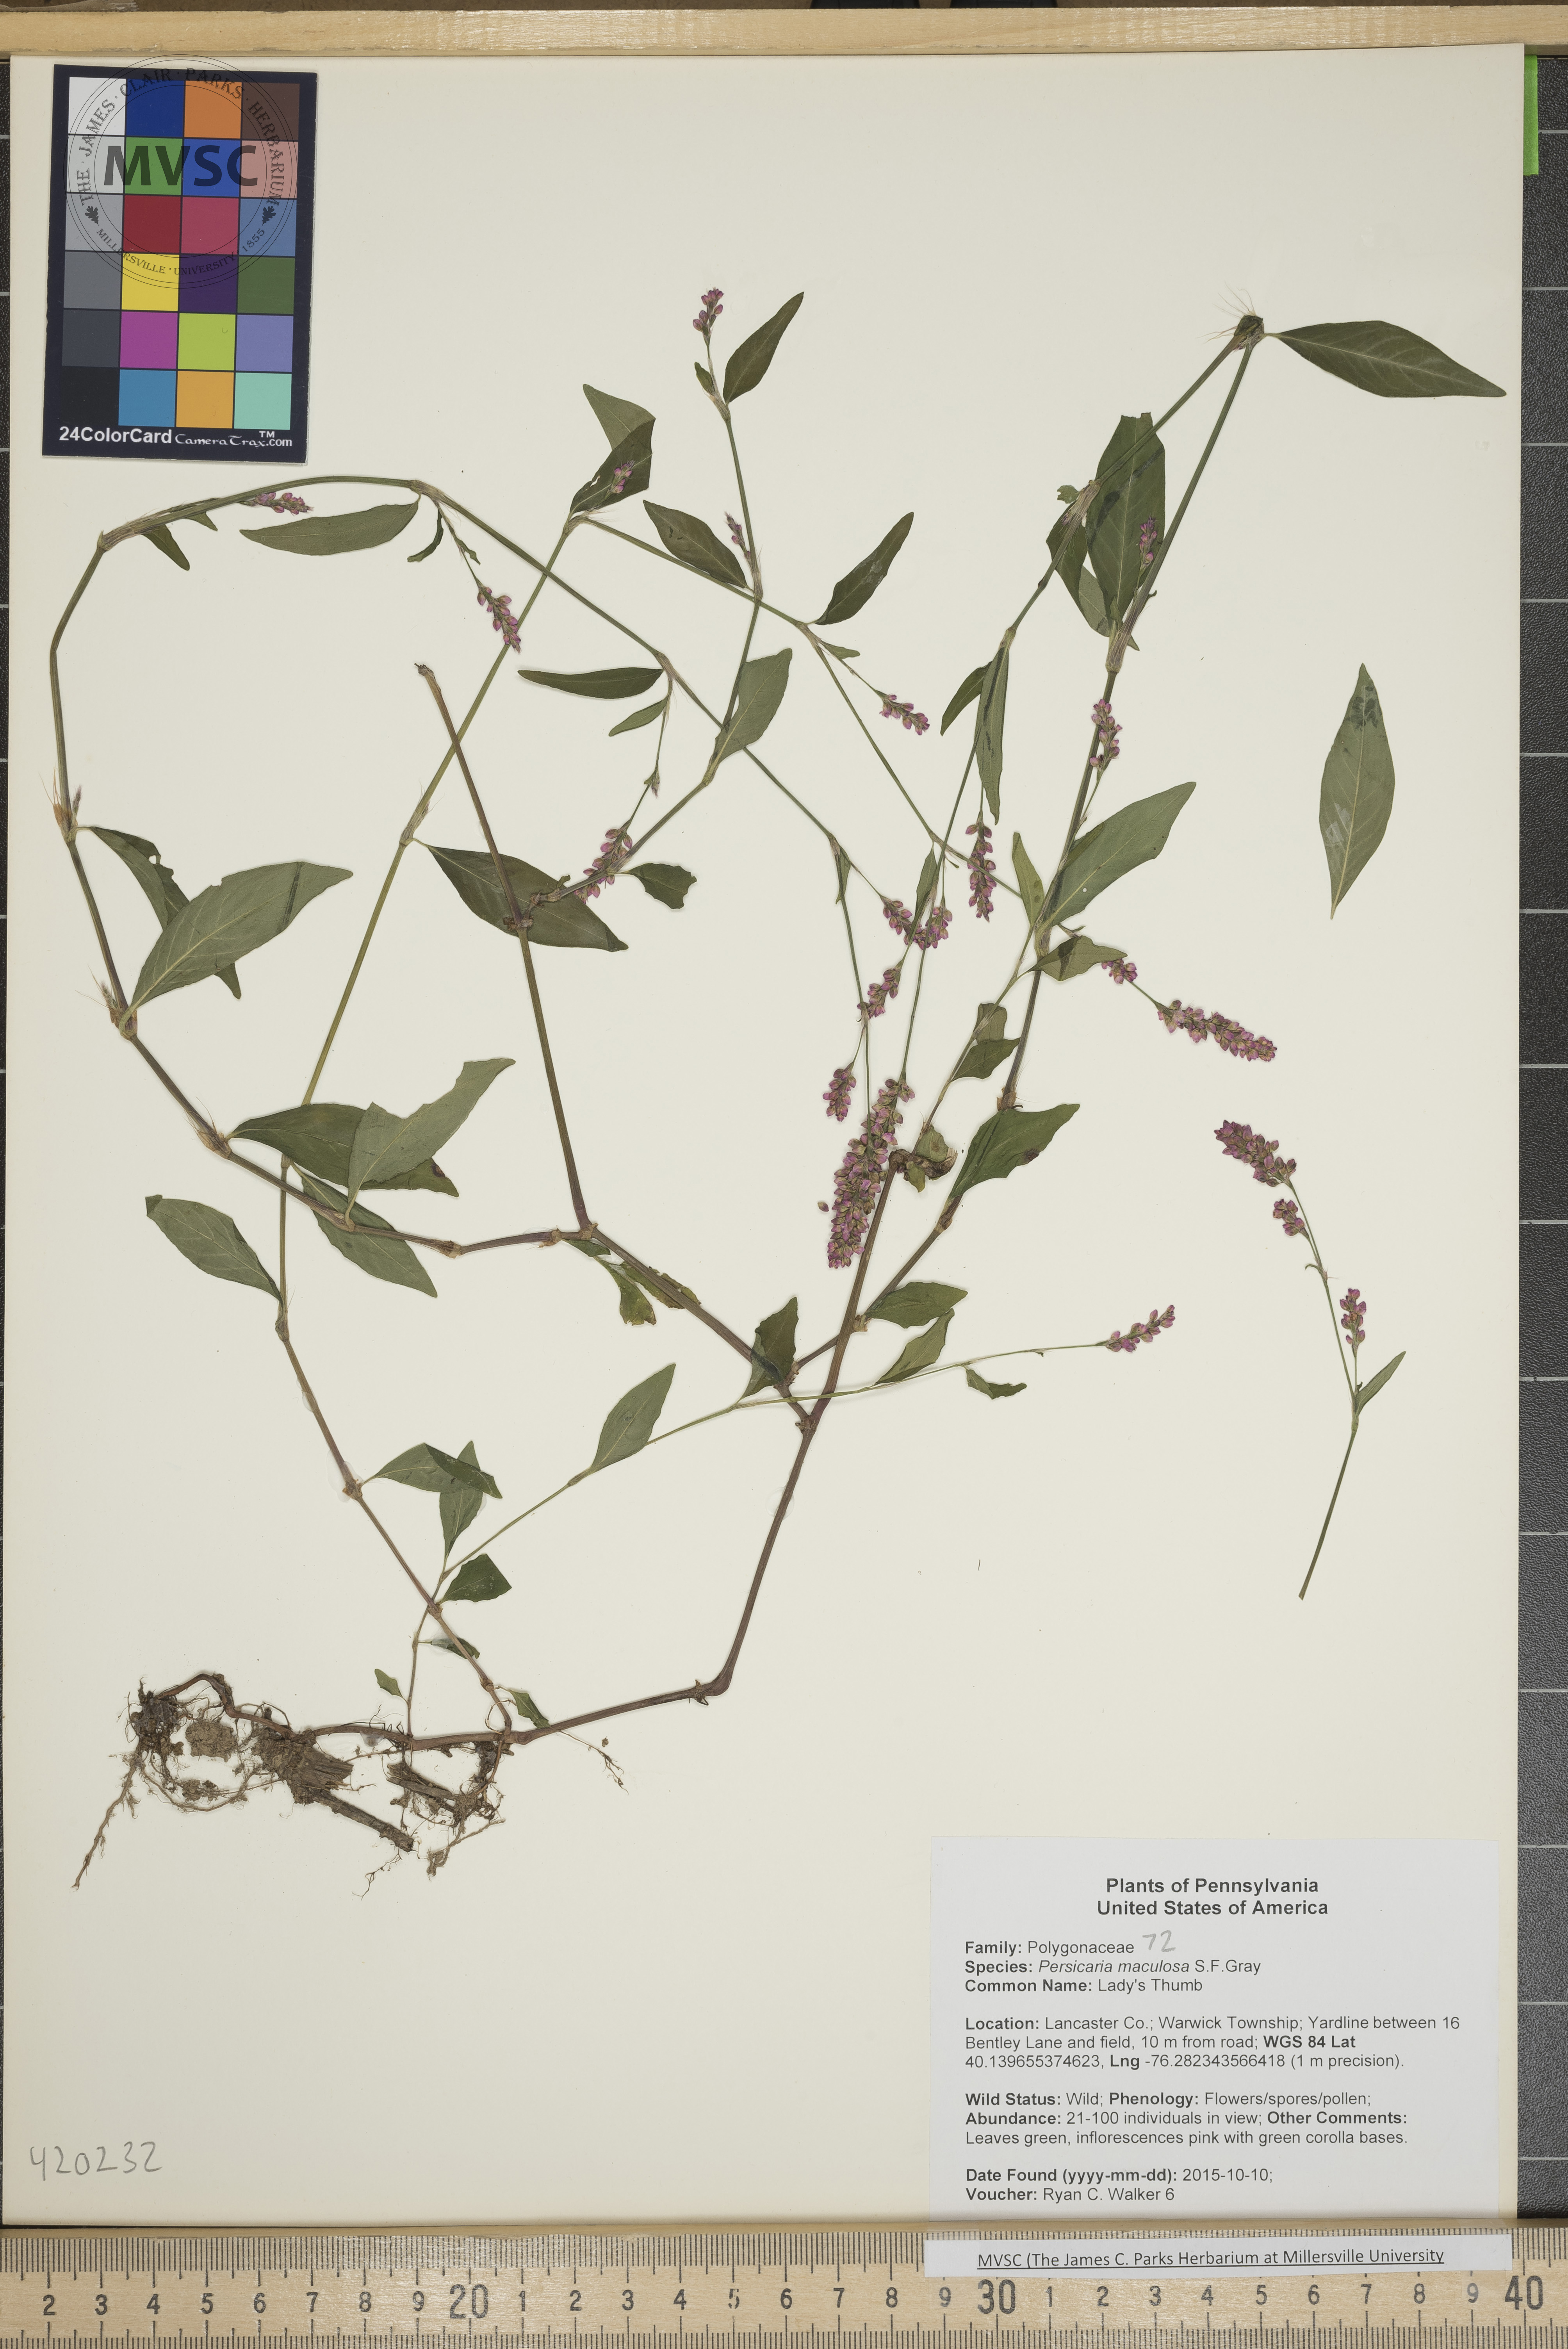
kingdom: Plantae
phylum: Tracheophyta
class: Magnoliopsida
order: Caryophyllales
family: Polygonaceae
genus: Persicaria
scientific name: Persicaria maculosa
